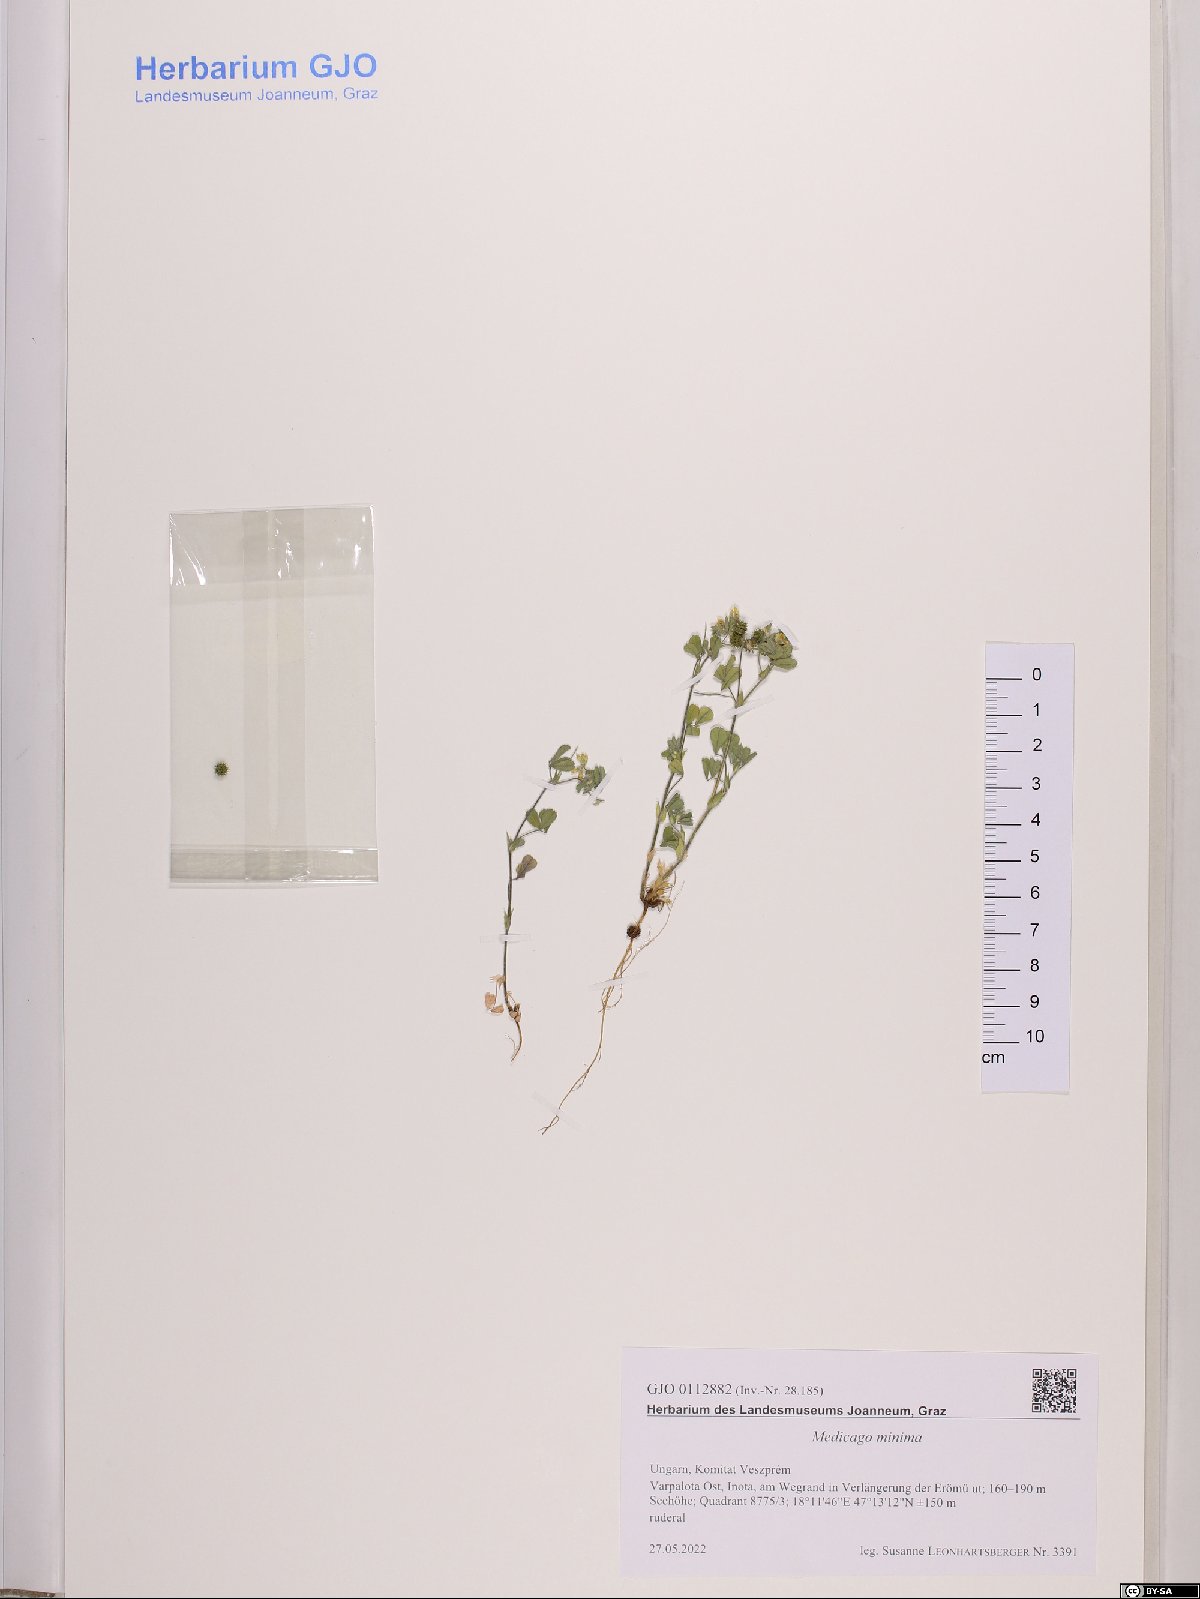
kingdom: Plantae
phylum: Tracheophyta
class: Magnoliopsida
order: Fabales
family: Fabaceae
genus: Medicago
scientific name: Medicago minima
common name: Little bur-clover
